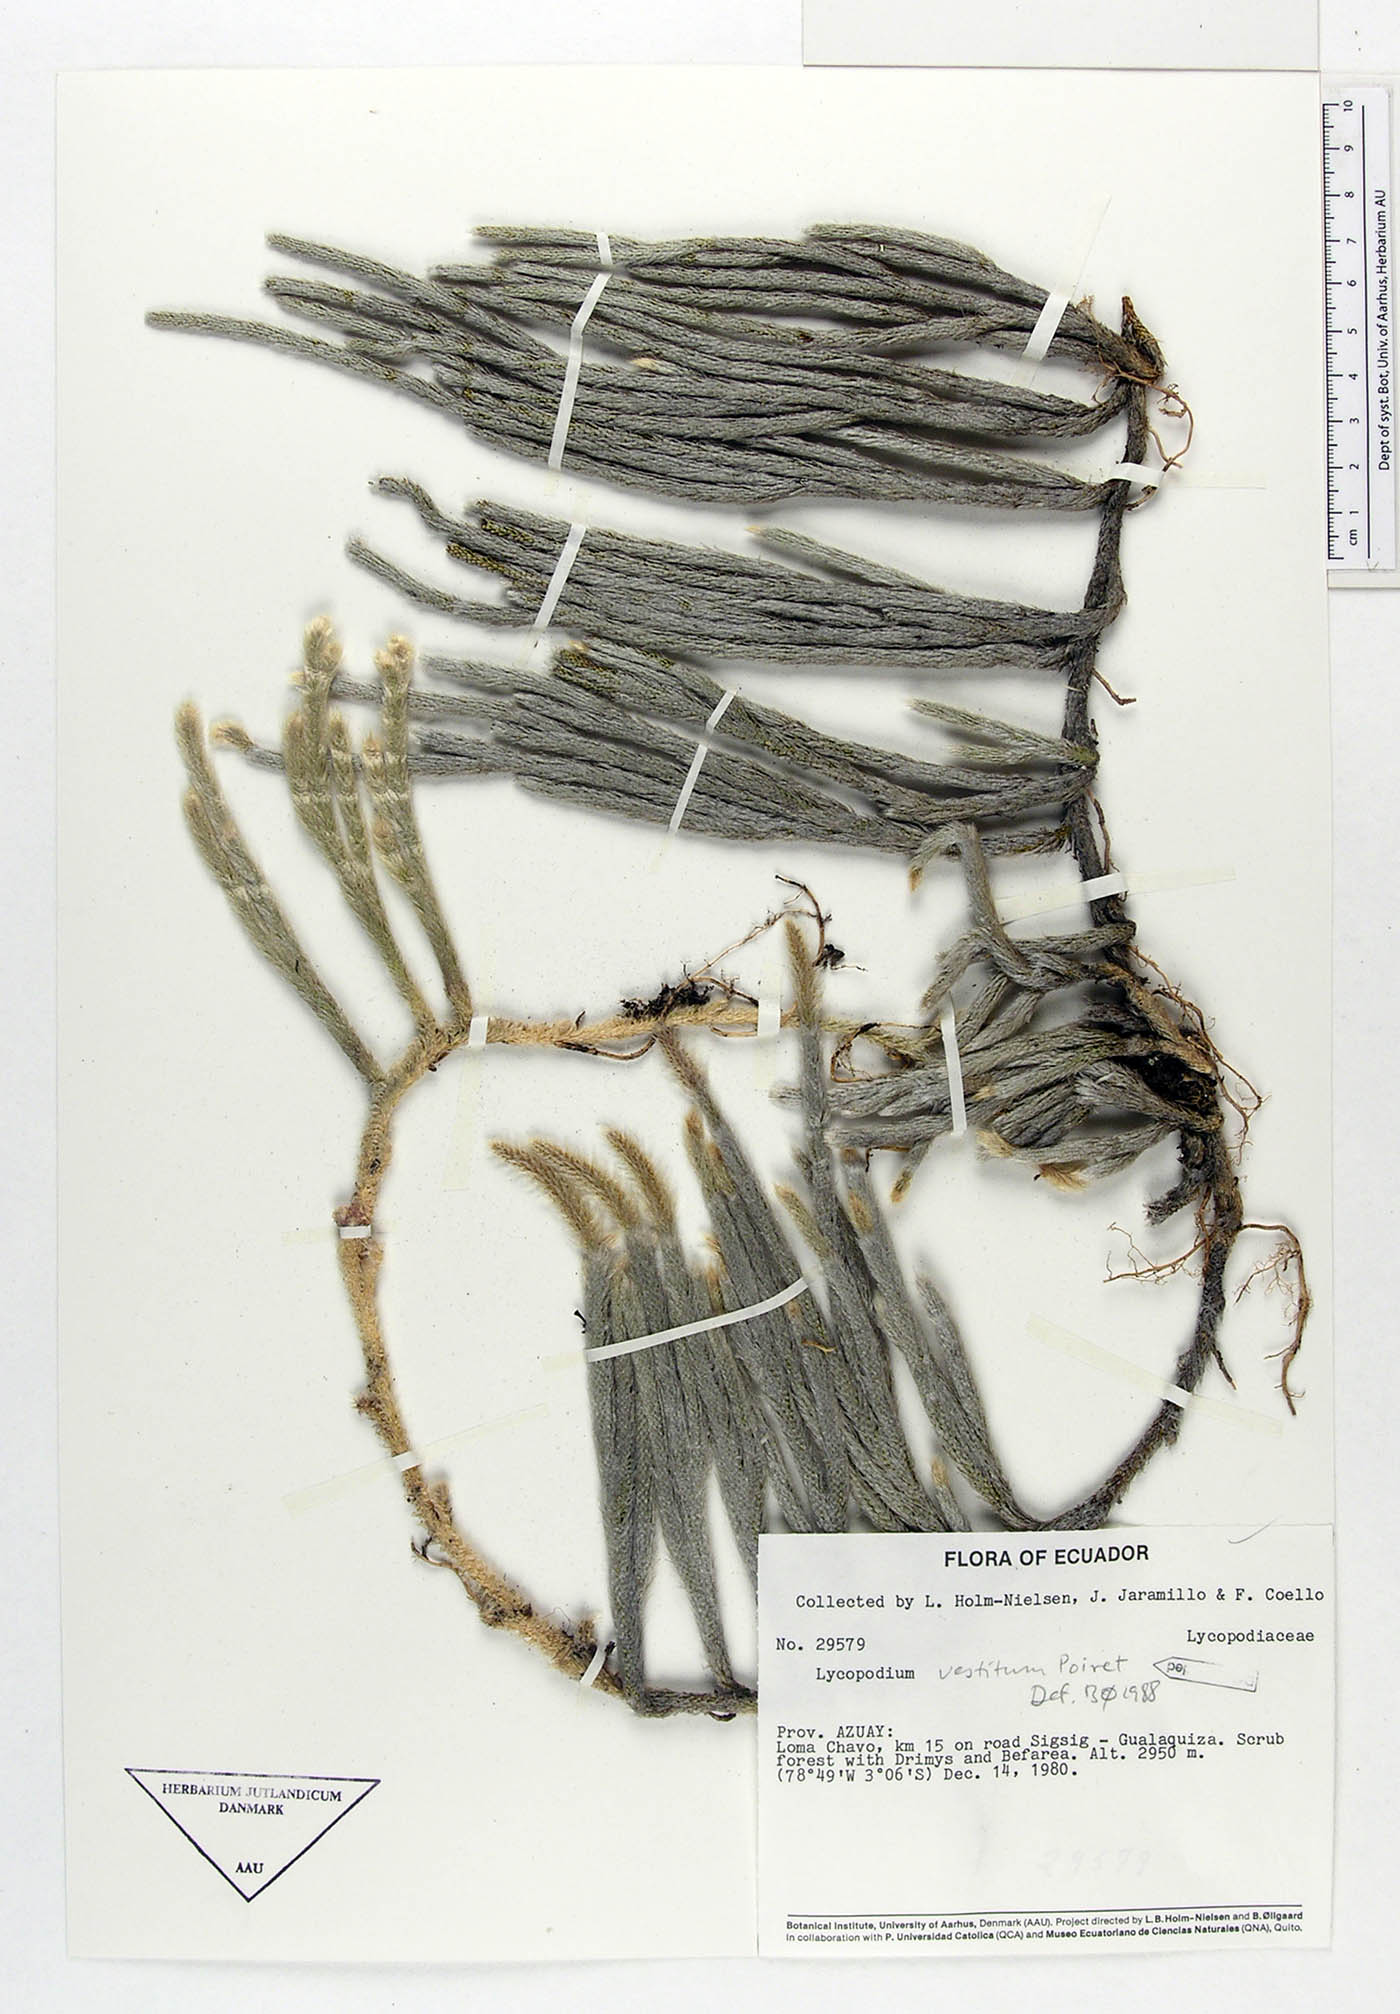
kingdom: Plantae
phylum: Tracheophyta
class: Lycopodiopsida
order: Lycopodiales
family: Lycopodiaceae
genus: Lycopodium
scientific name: Lycopodium vestitum
